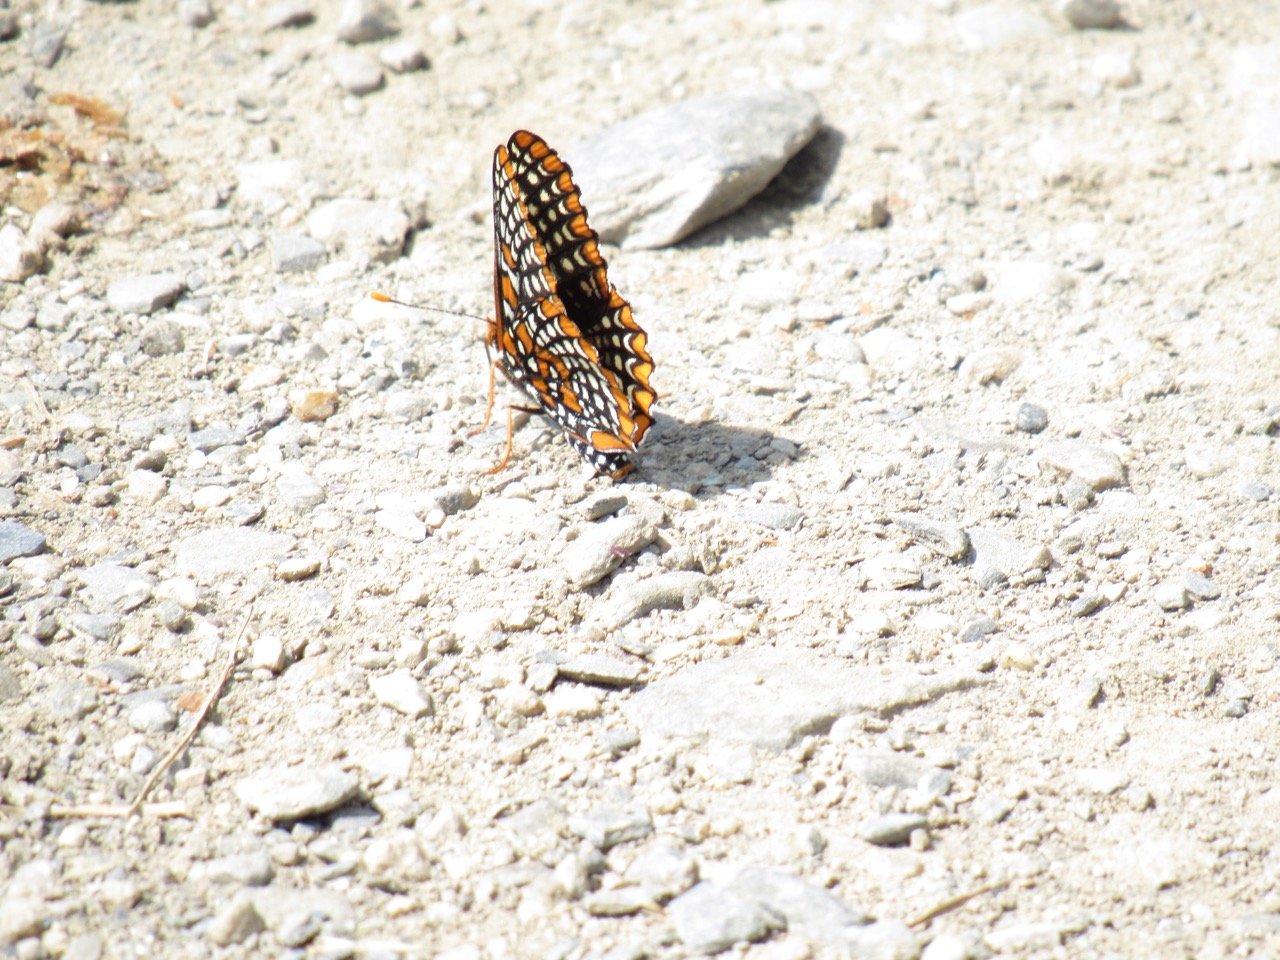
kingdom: Animalia
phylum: Arthropoda
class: Insecta
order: Lepidoptera
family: Nymphalidae
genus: Euphydryas
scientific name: Euphydryas phaeton
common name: Baltimore Checkerspot
